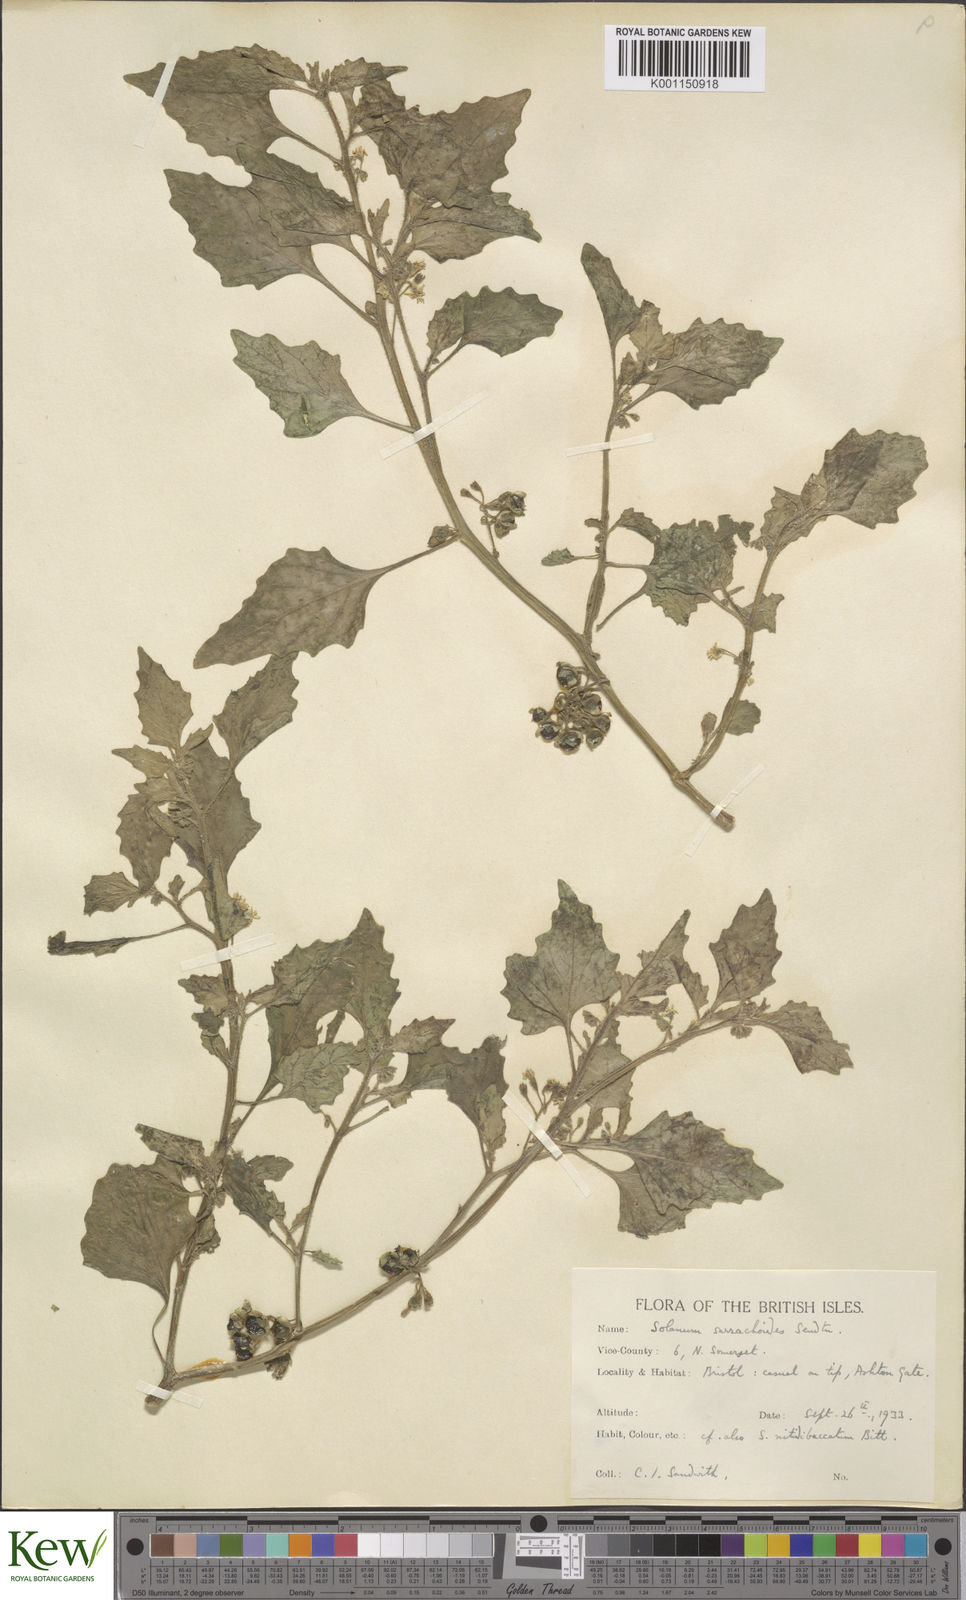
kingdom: Plantae
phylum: Tracheophyta
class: Magnoliopsida
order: Solanales
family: Solanaceae
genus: Solanum
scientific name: Solanum nitidibaccatum
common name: Hairy nightshade
